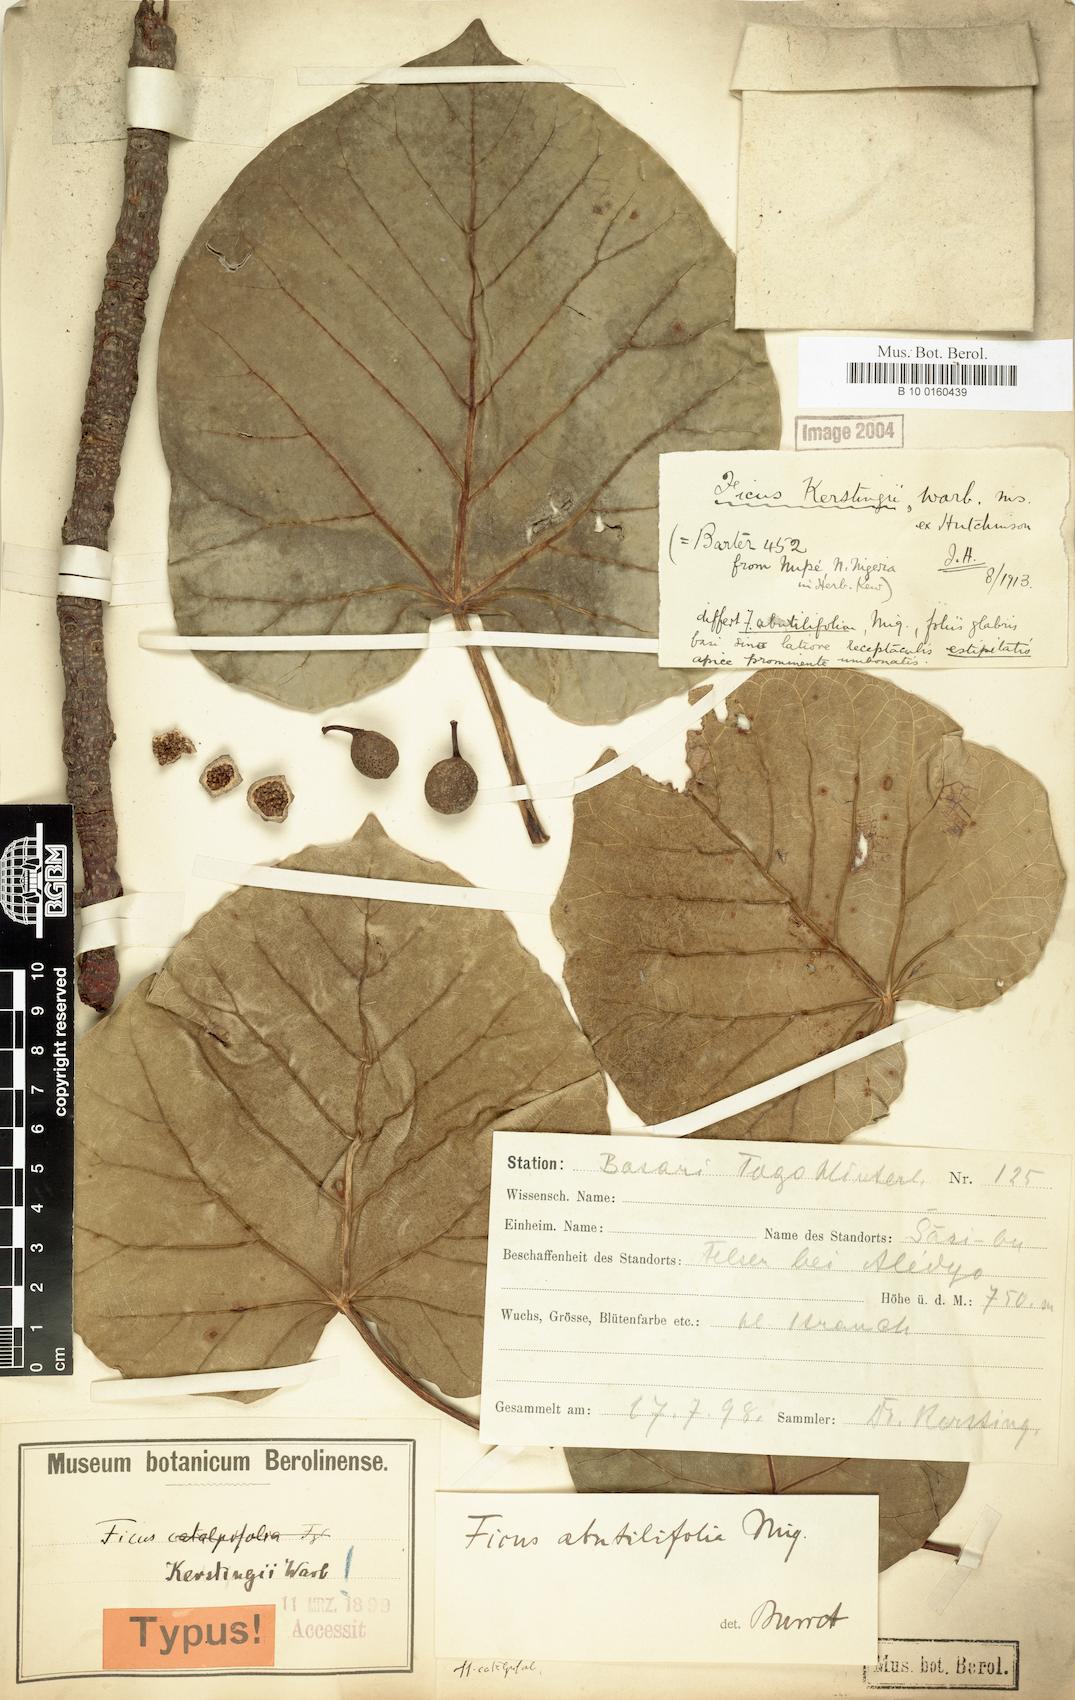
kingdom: Plantae
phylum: Tracheophyta
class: Magnoliopsida
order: Rosales
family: Moraceae
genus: Ficus
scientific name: Ficus abutilifolia
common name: Large-leaved rock fig
